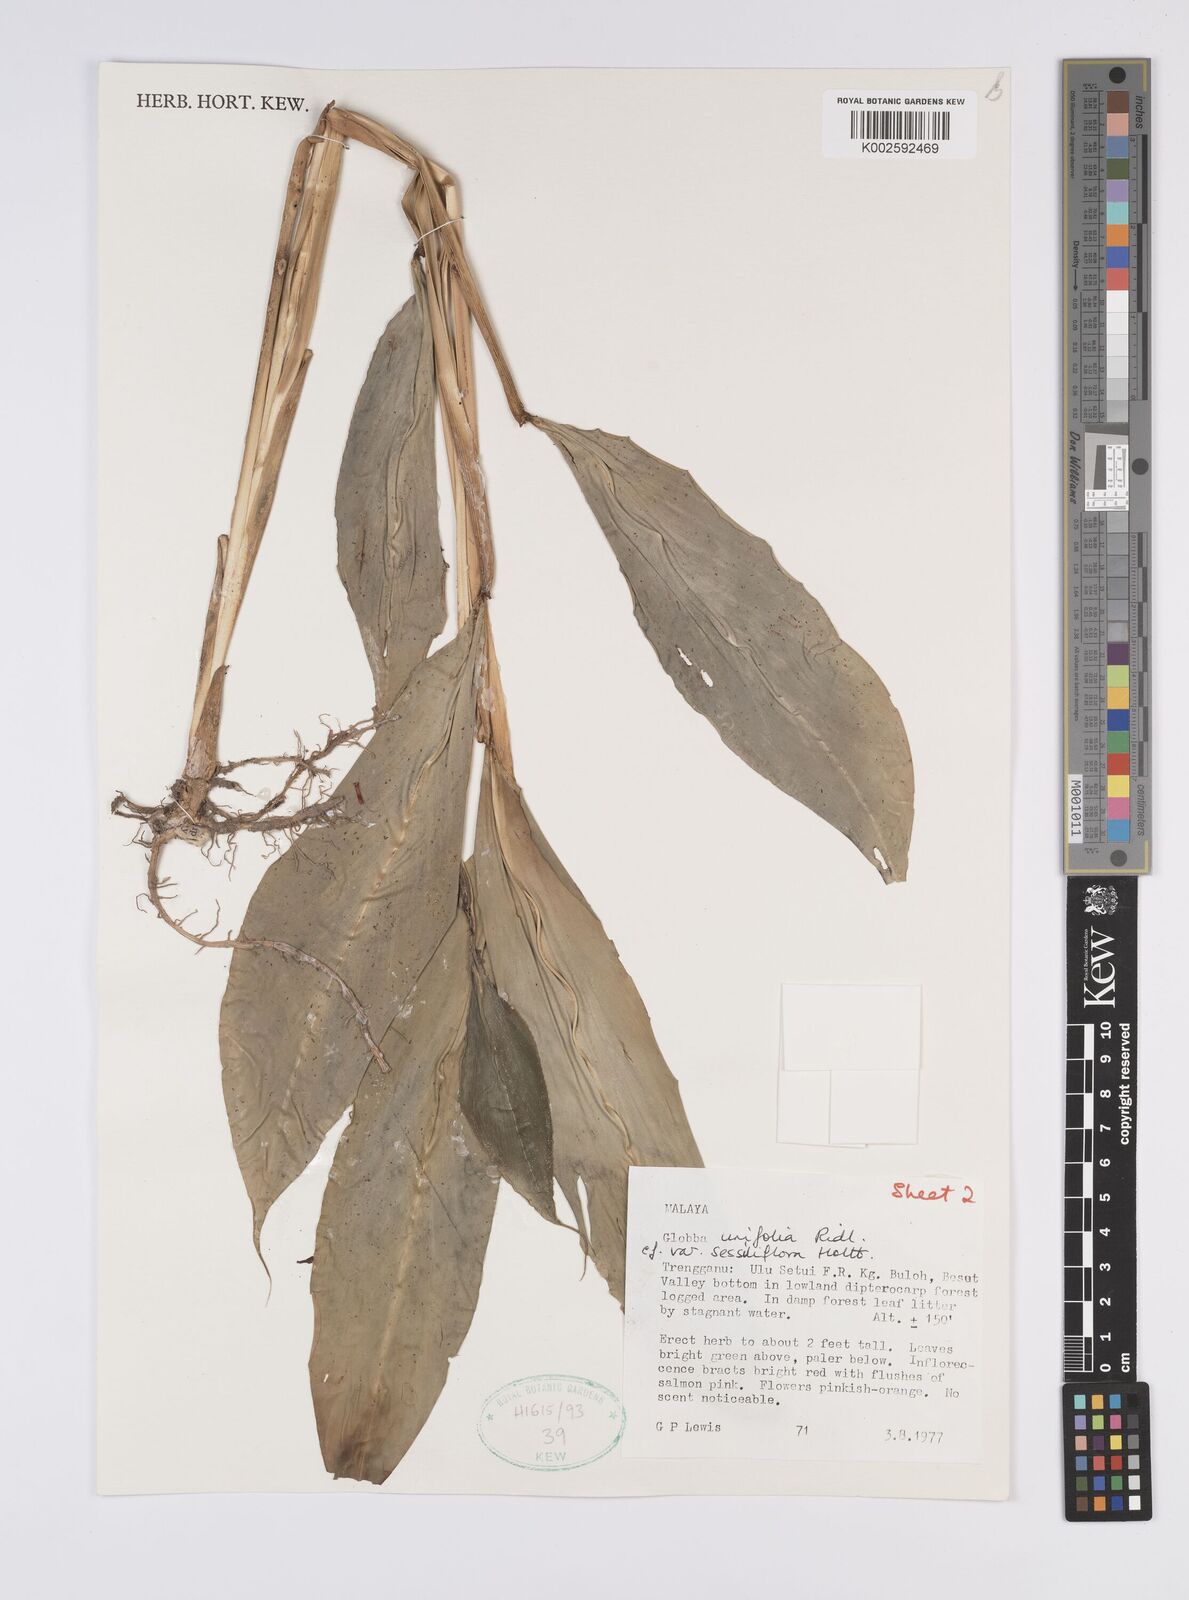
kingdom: Plantae
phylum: Tracheophyta
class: Liliopsida
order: Zingiberales
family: Zingiberaceae
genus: Globba
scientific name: Globba unifolia
